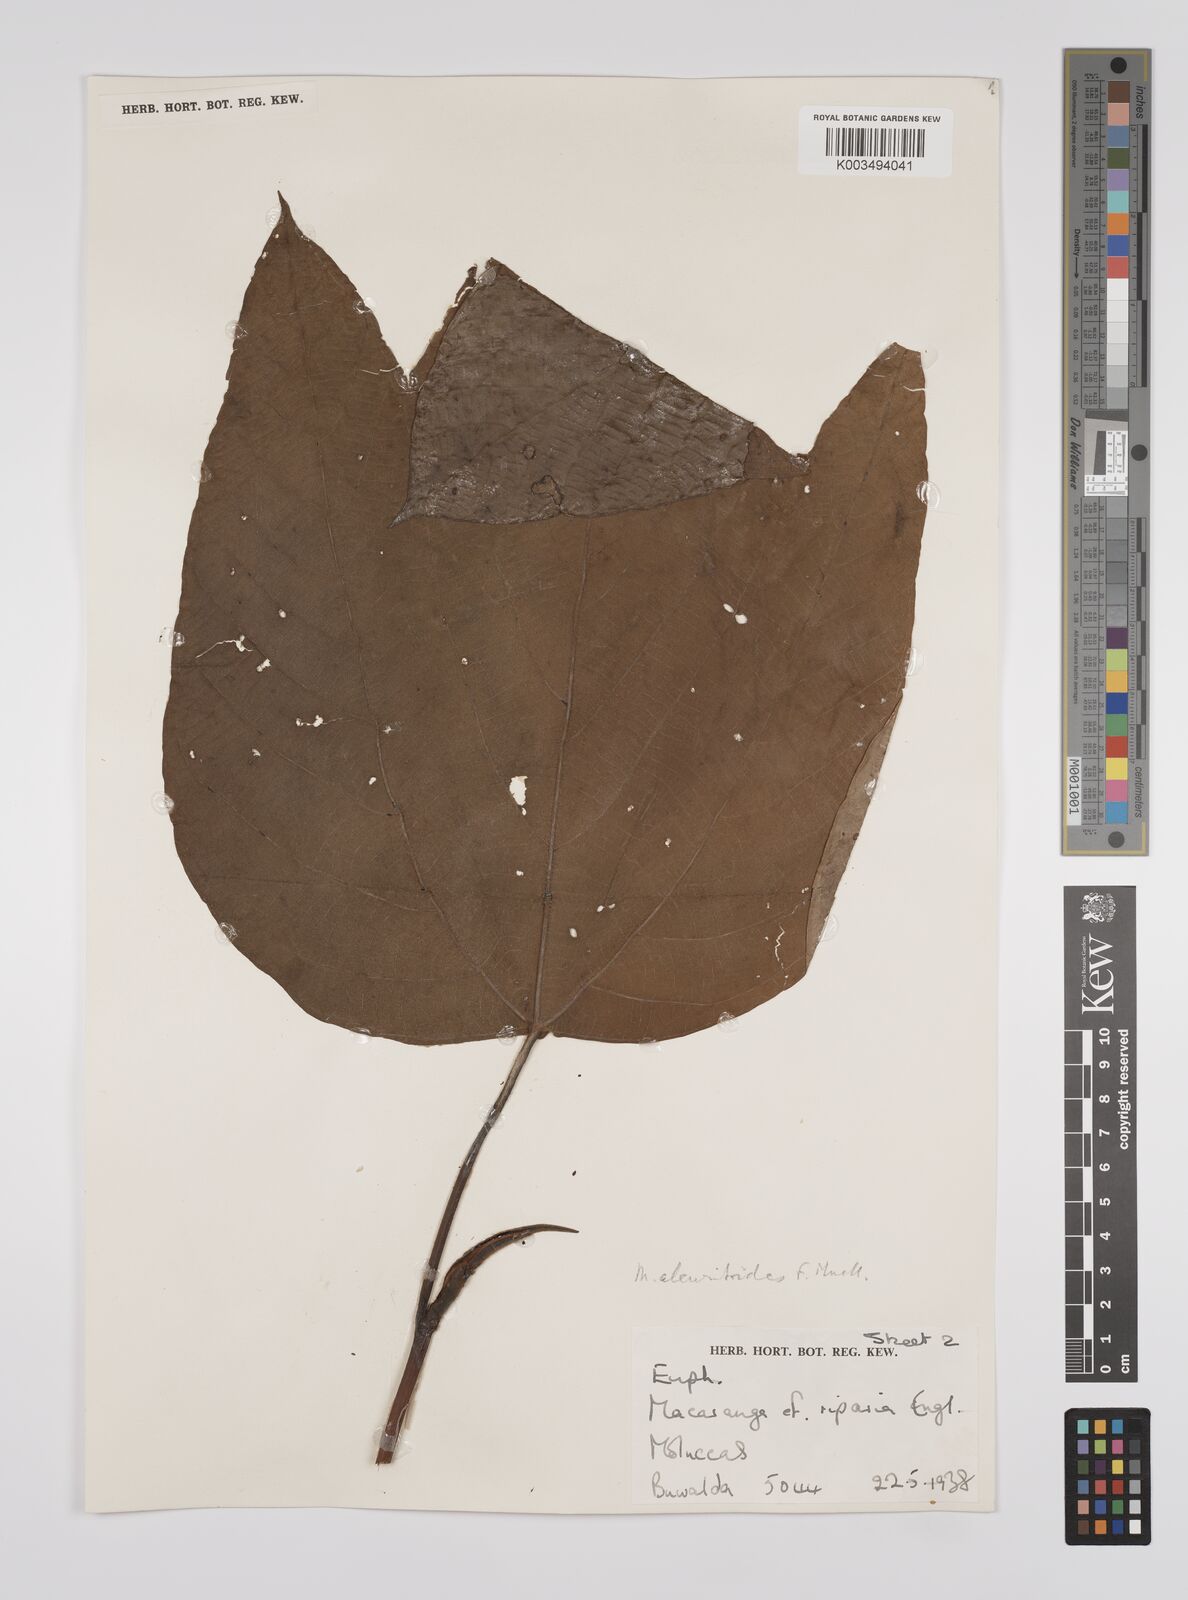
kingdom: Plantae
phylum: Tracheophyta
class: Magnoliopsida
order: Malpighiales
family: Euphorbiaceae
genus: Macaranga
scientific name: Macaranga aleuritoides
